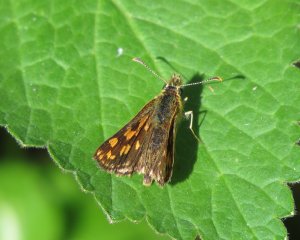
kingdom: Animalia
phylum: Arthropoda
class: Insecta
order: Lepidoptera
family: Hesperiidae
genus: Carterocephalus
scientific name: Carterocephalus palaemon
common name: Chequered Skipper
